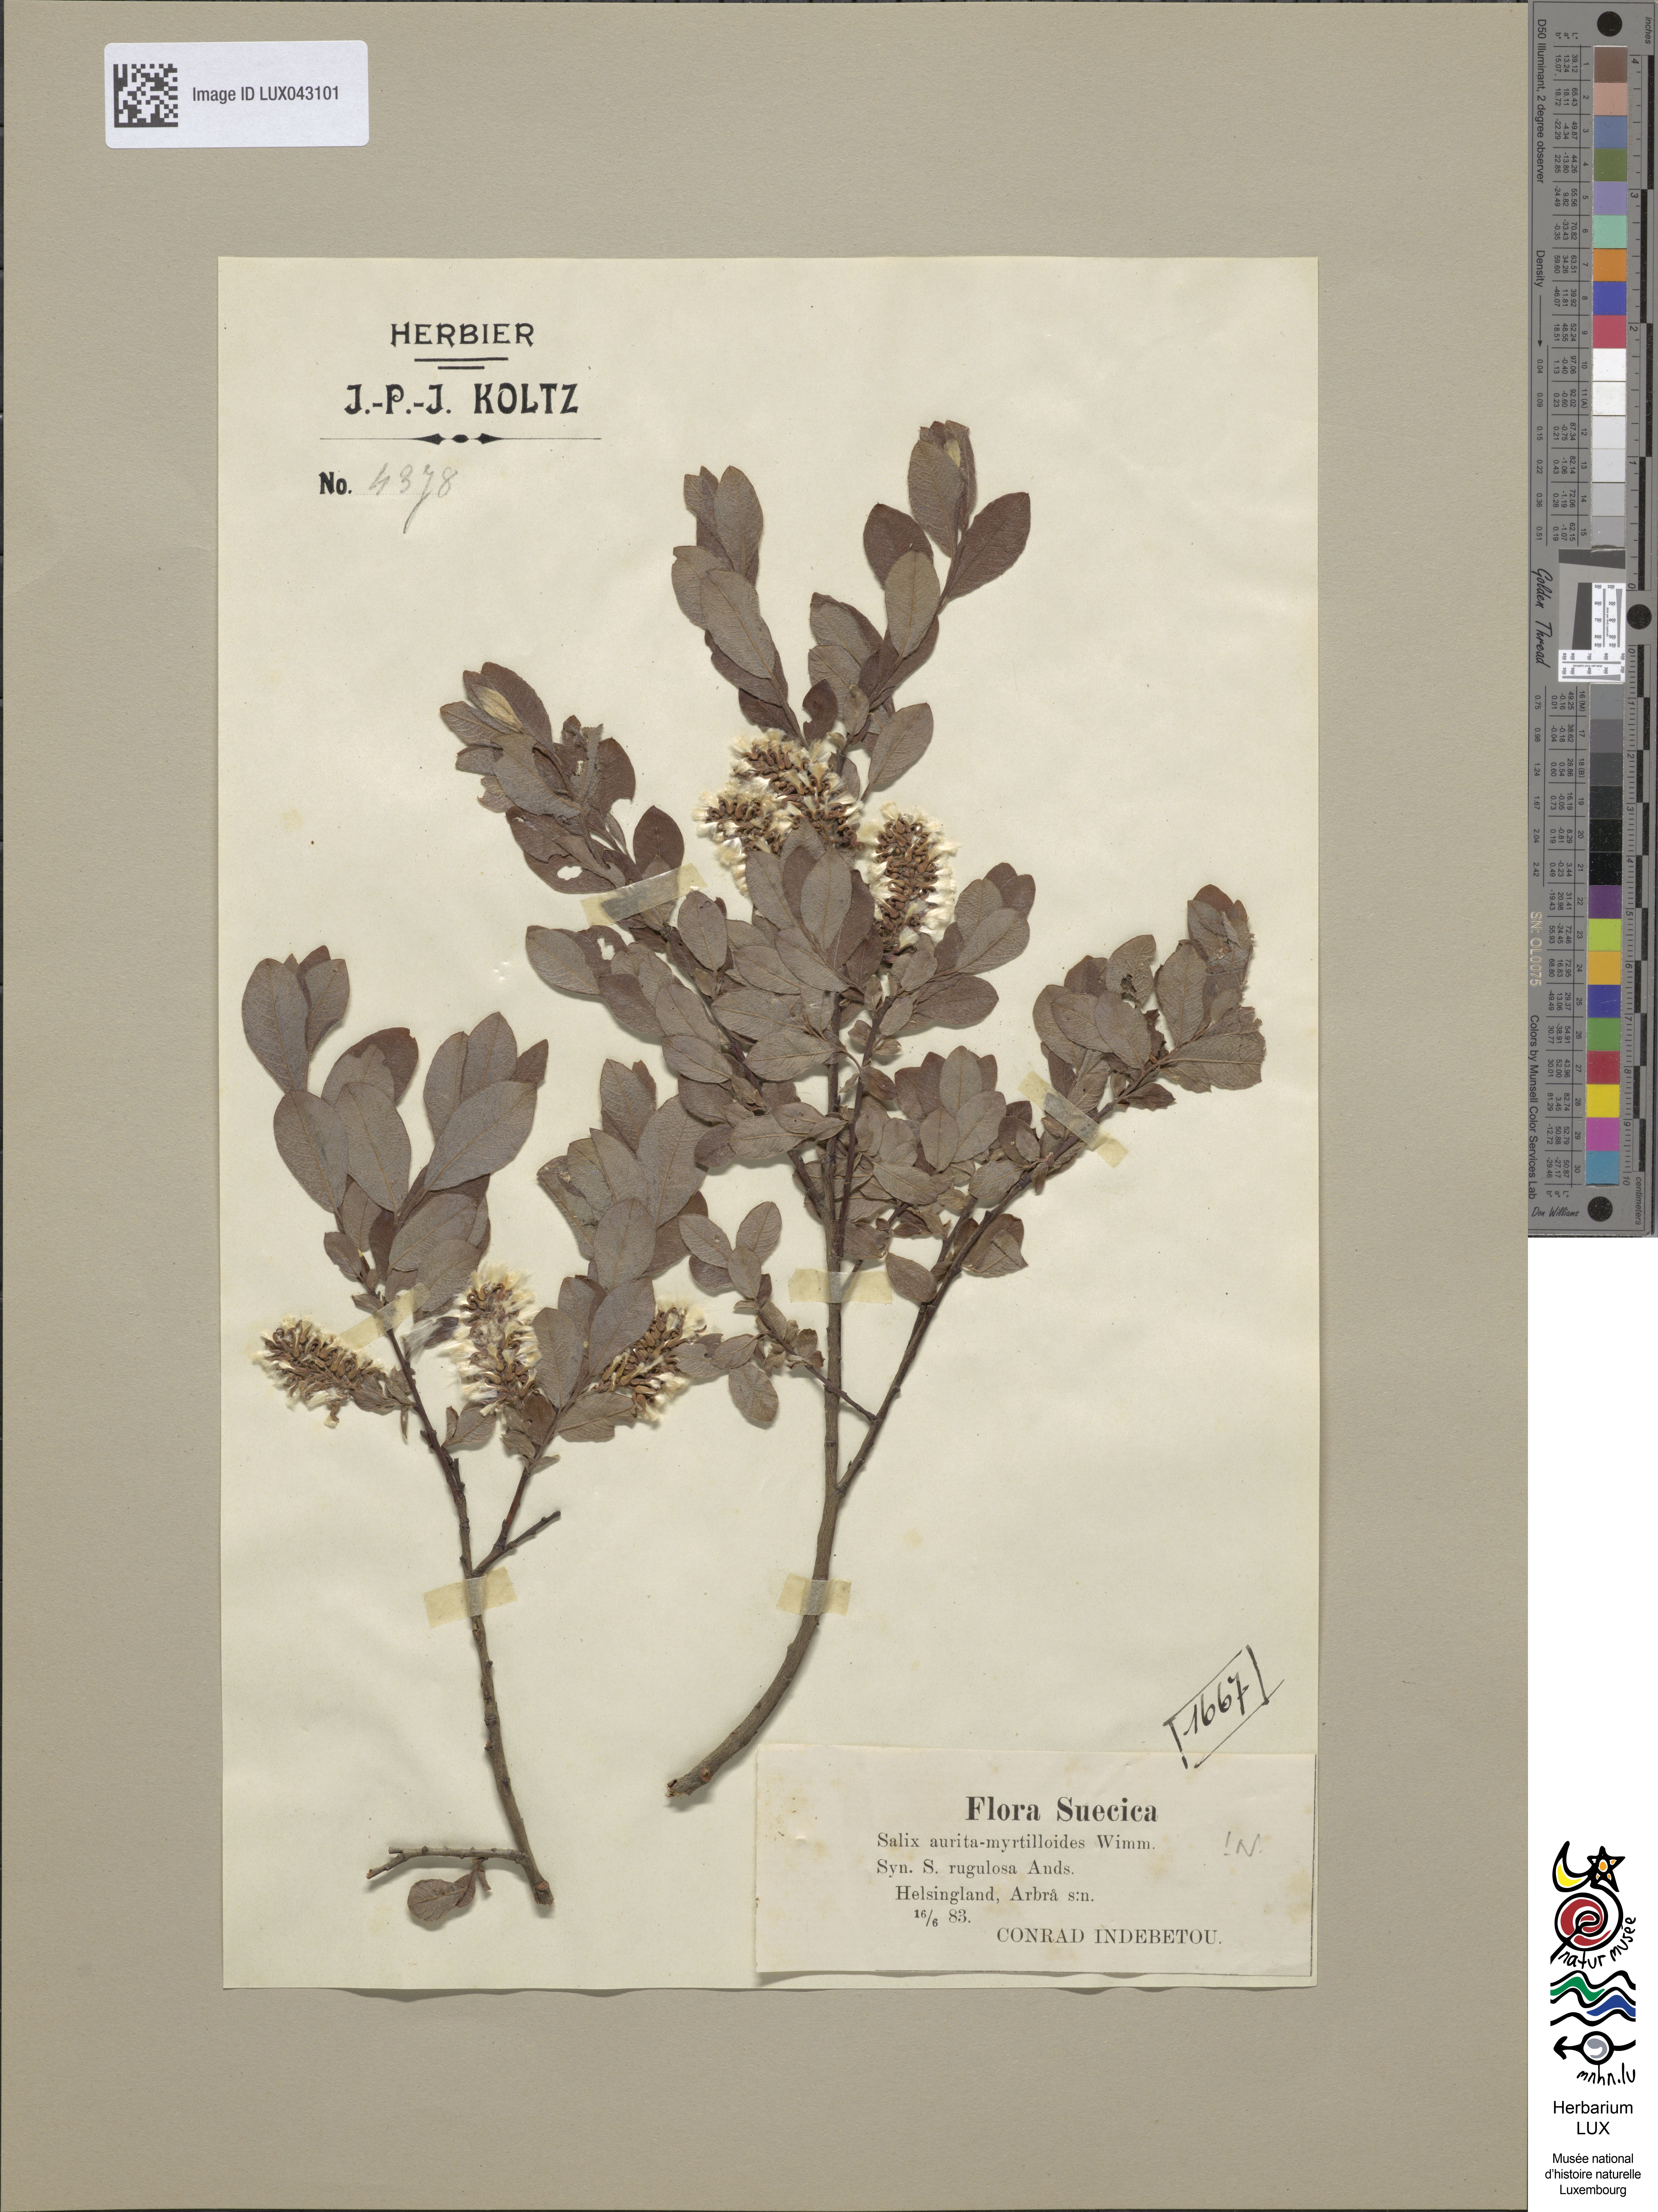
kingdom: Plantae
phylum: Tracheophyta
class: Magnoliopsida
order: Malpighiales
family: Salicaceae
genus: Salix
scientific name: Salix
